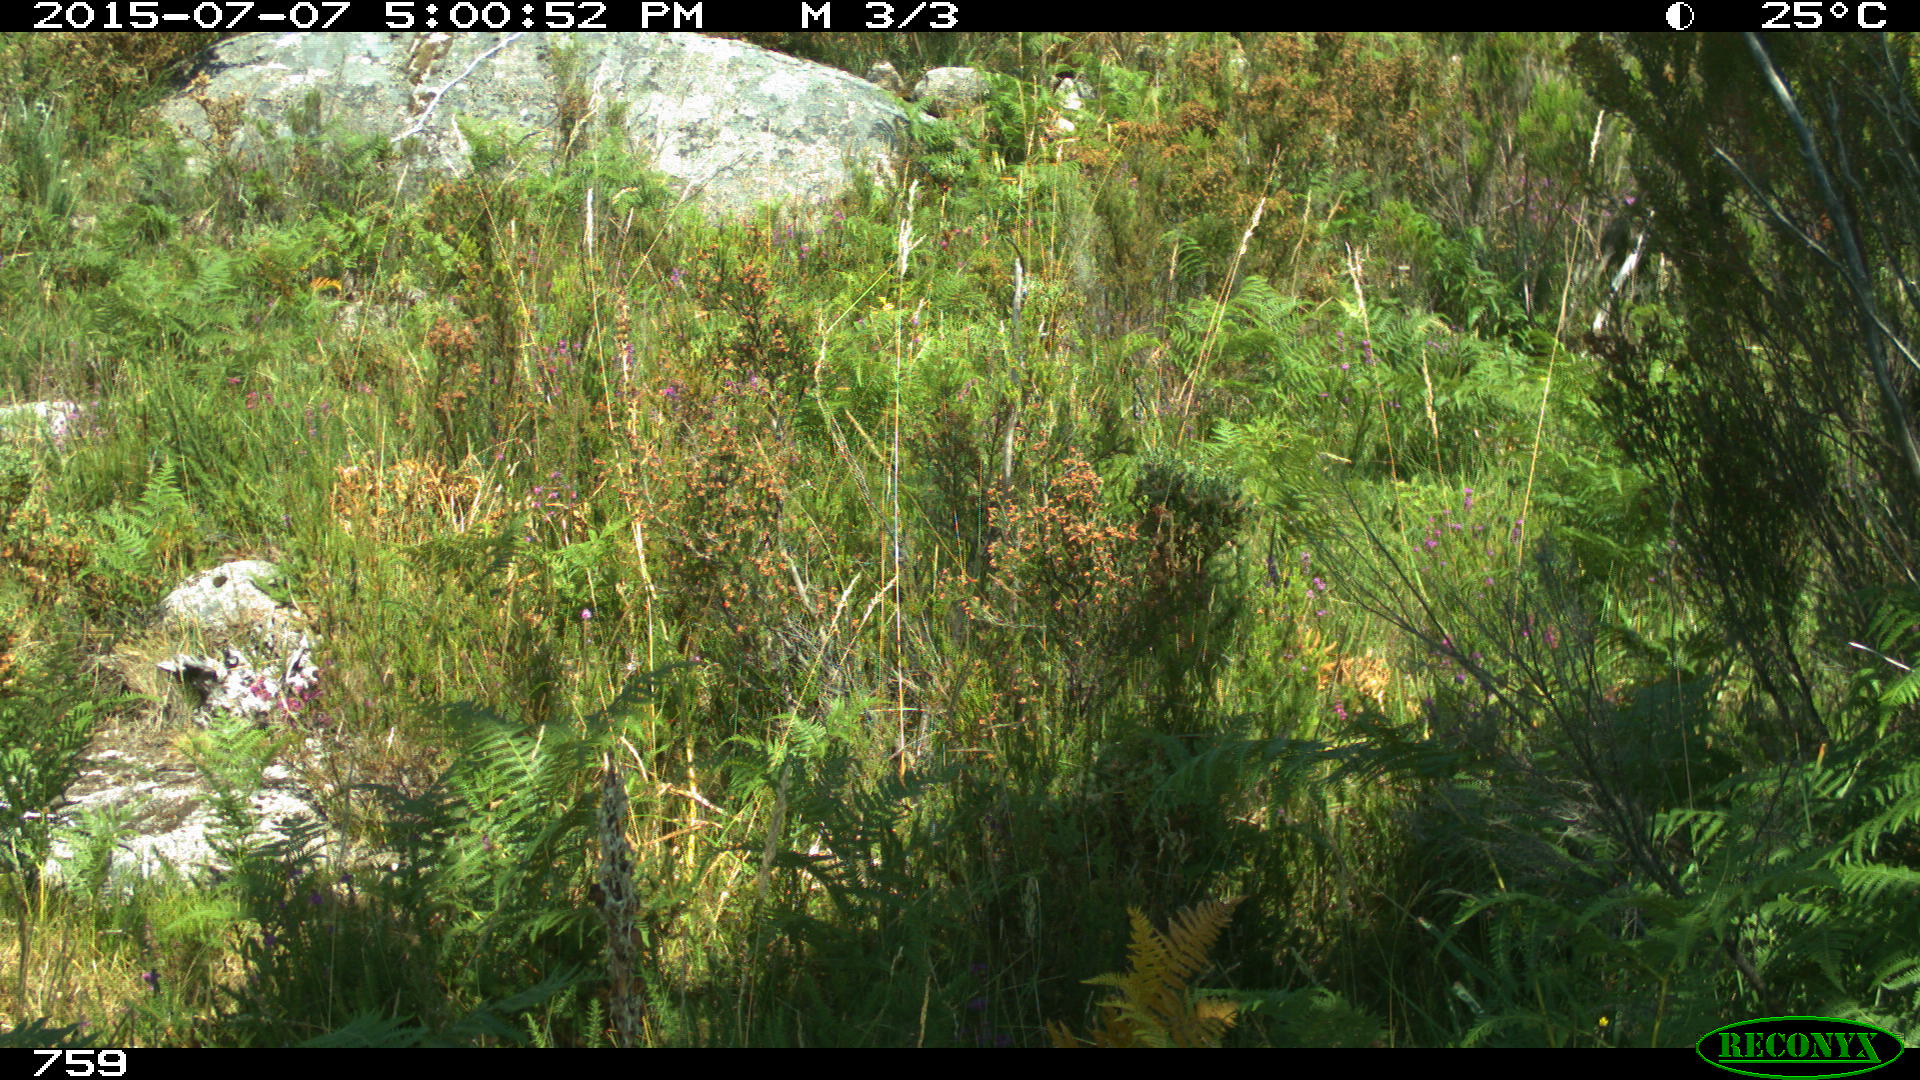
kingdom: Animalia
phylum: Chordata
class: Mammalia
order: Artiodactyla
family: Cervidae
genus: Capreolus
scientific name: Capreolus capreolus
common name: Western roe deer
